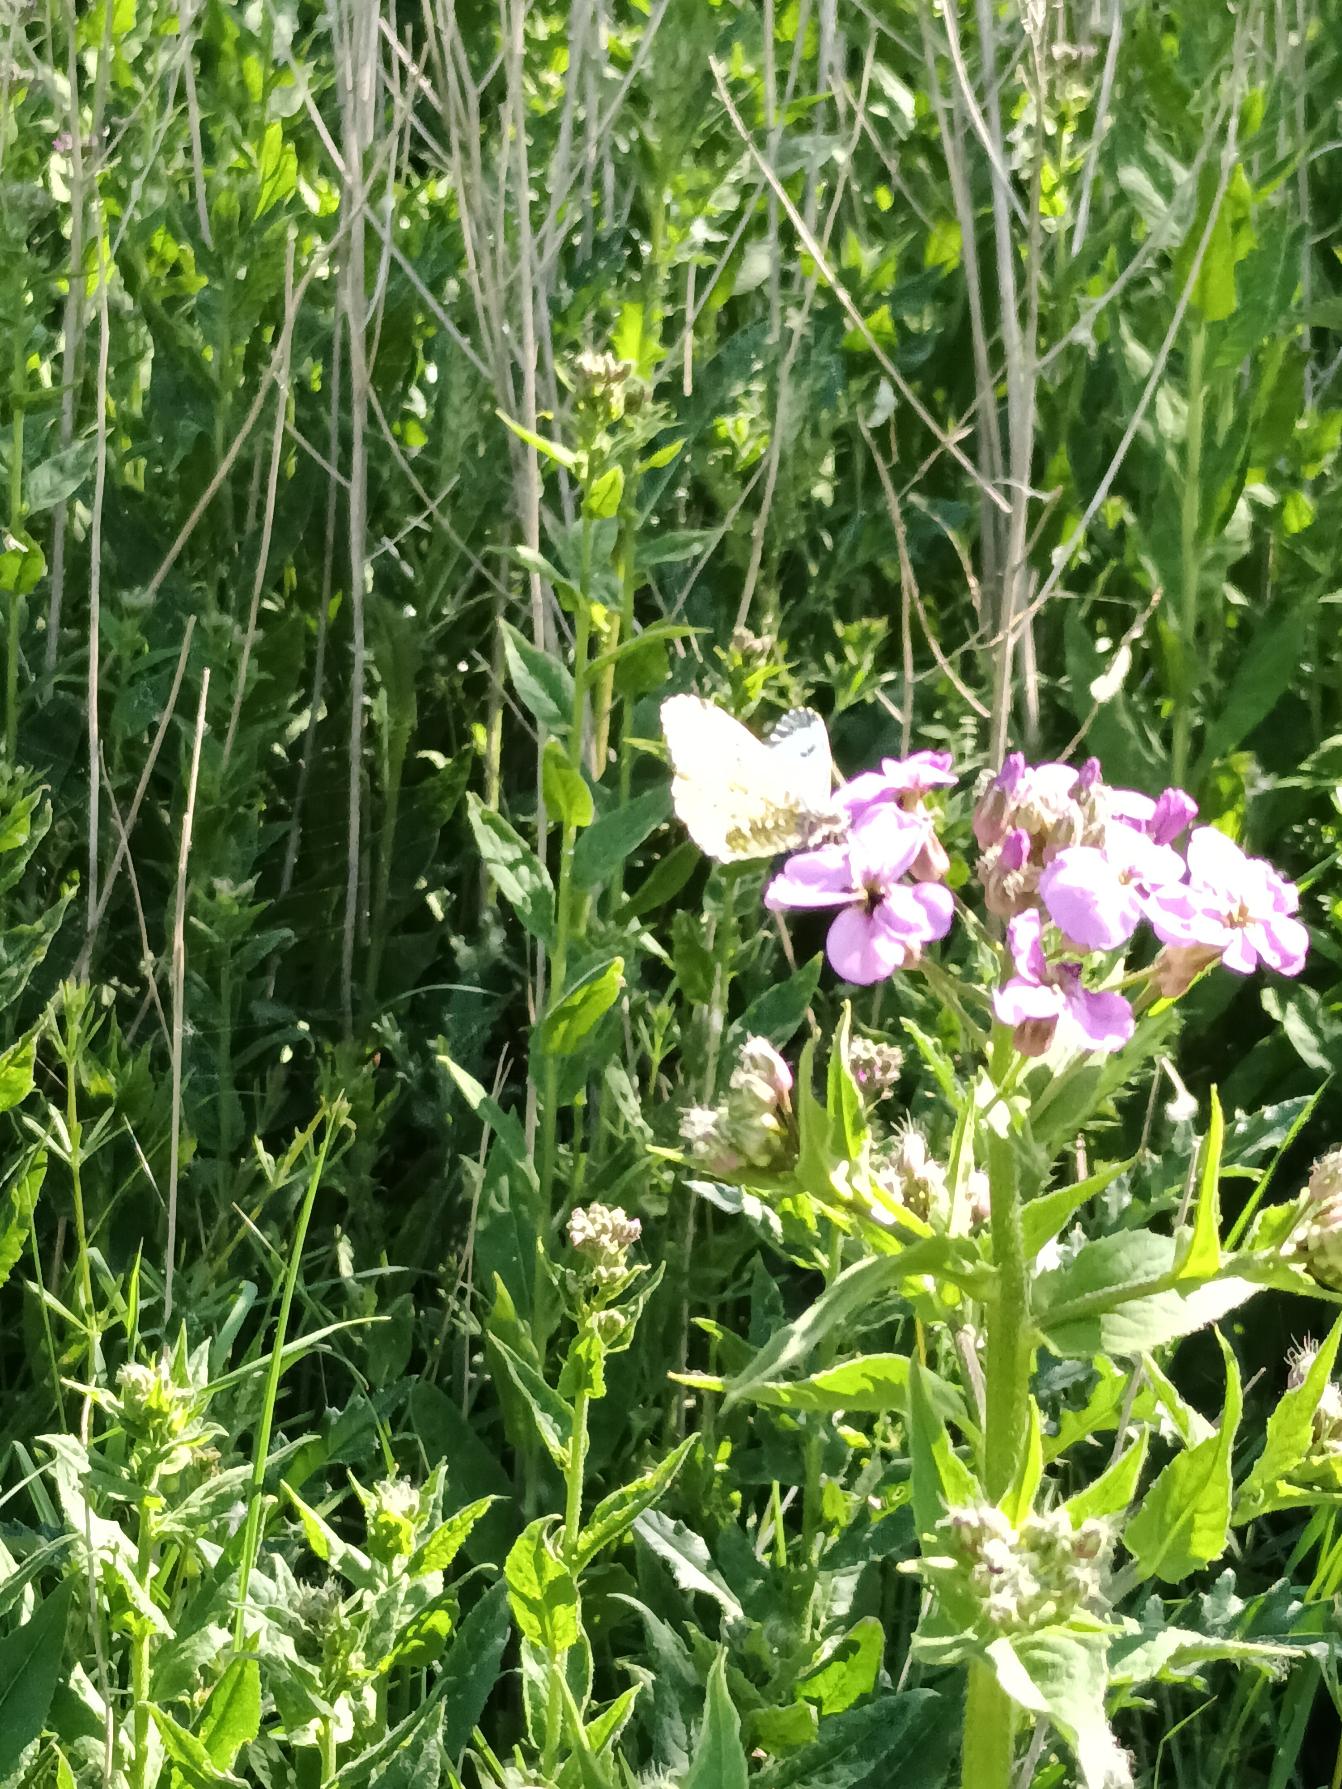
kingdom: Plantae
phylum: Tracheophyta
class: Magnoliopsida
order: Brassicales
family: Brassicaceae
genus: Hesperis
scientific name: Hesperis matronalis
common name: Aftenstjerne
